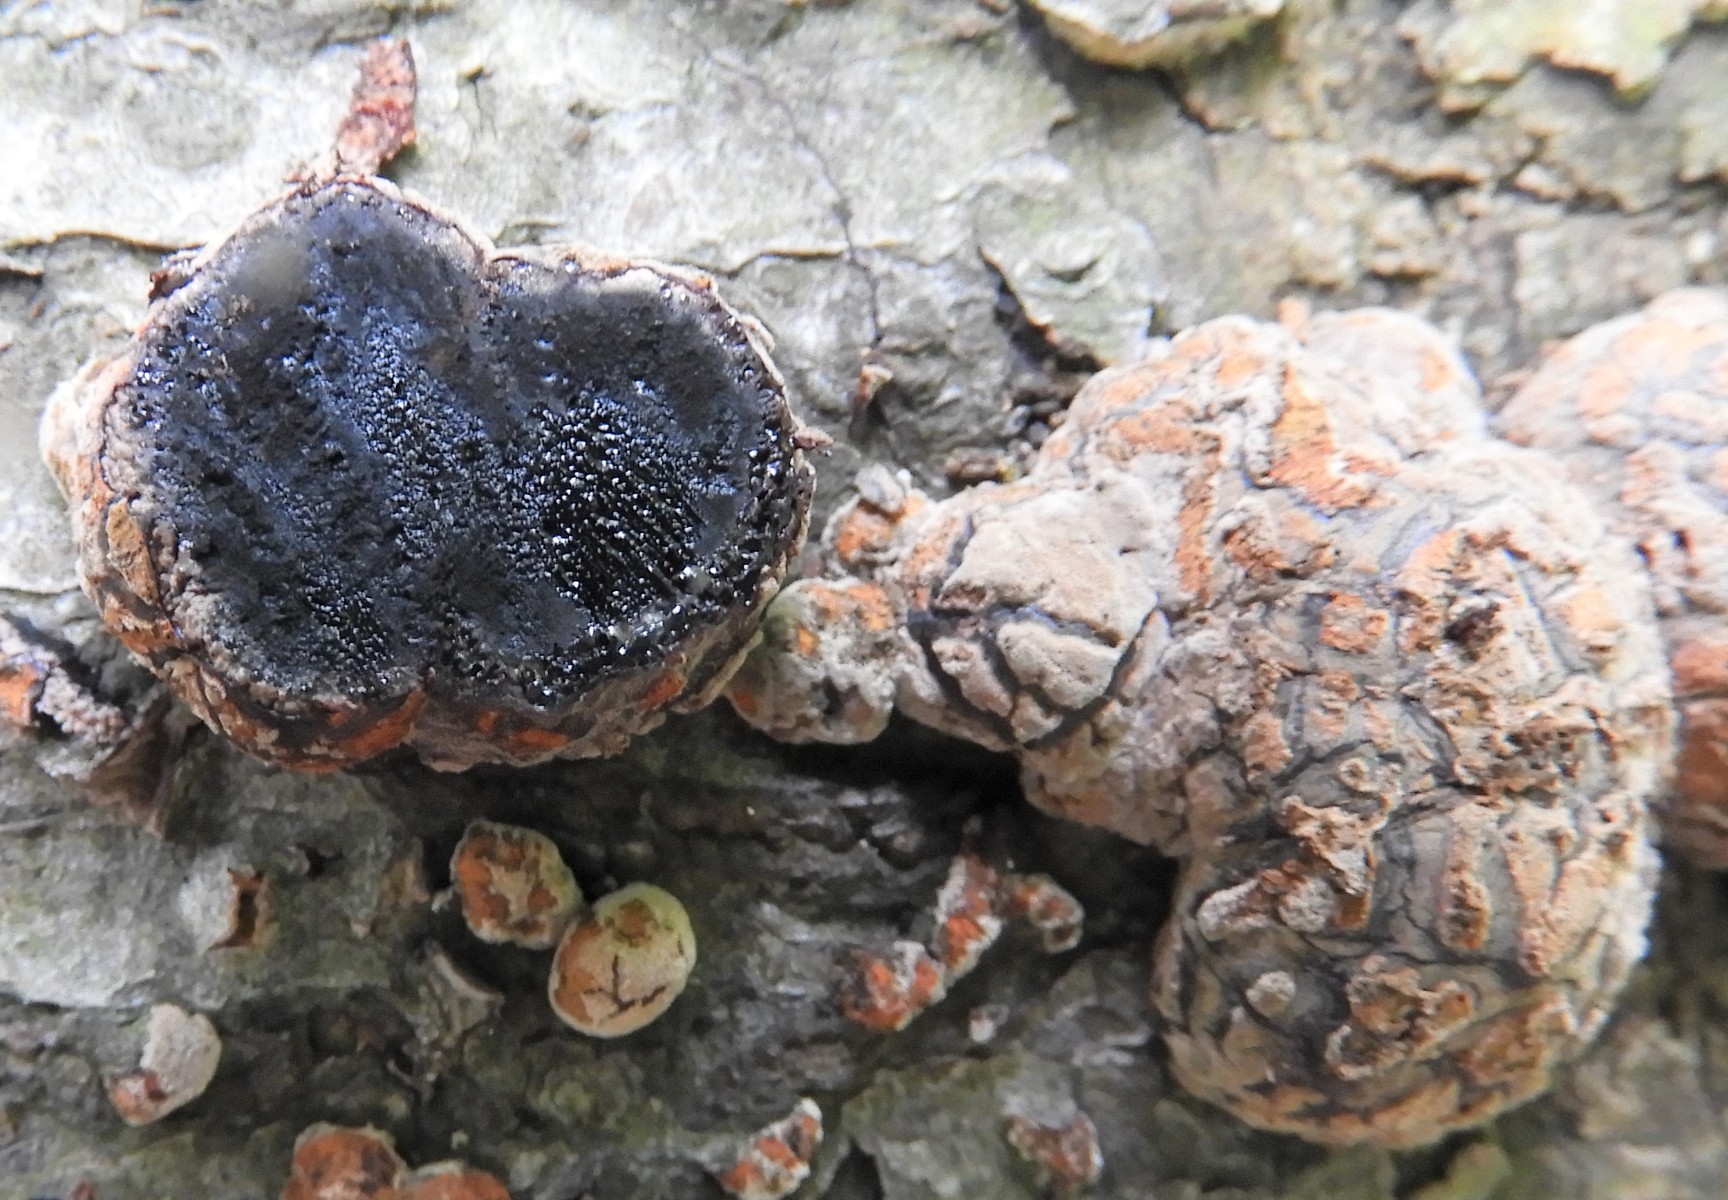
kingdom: Fungi
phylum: Ascomycota
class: Sordariomycetes
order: Xylariales
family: Hypoxylaceae
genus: Hypoxylon
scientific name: Hypoxylon fragiforme
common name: kuljordbær
